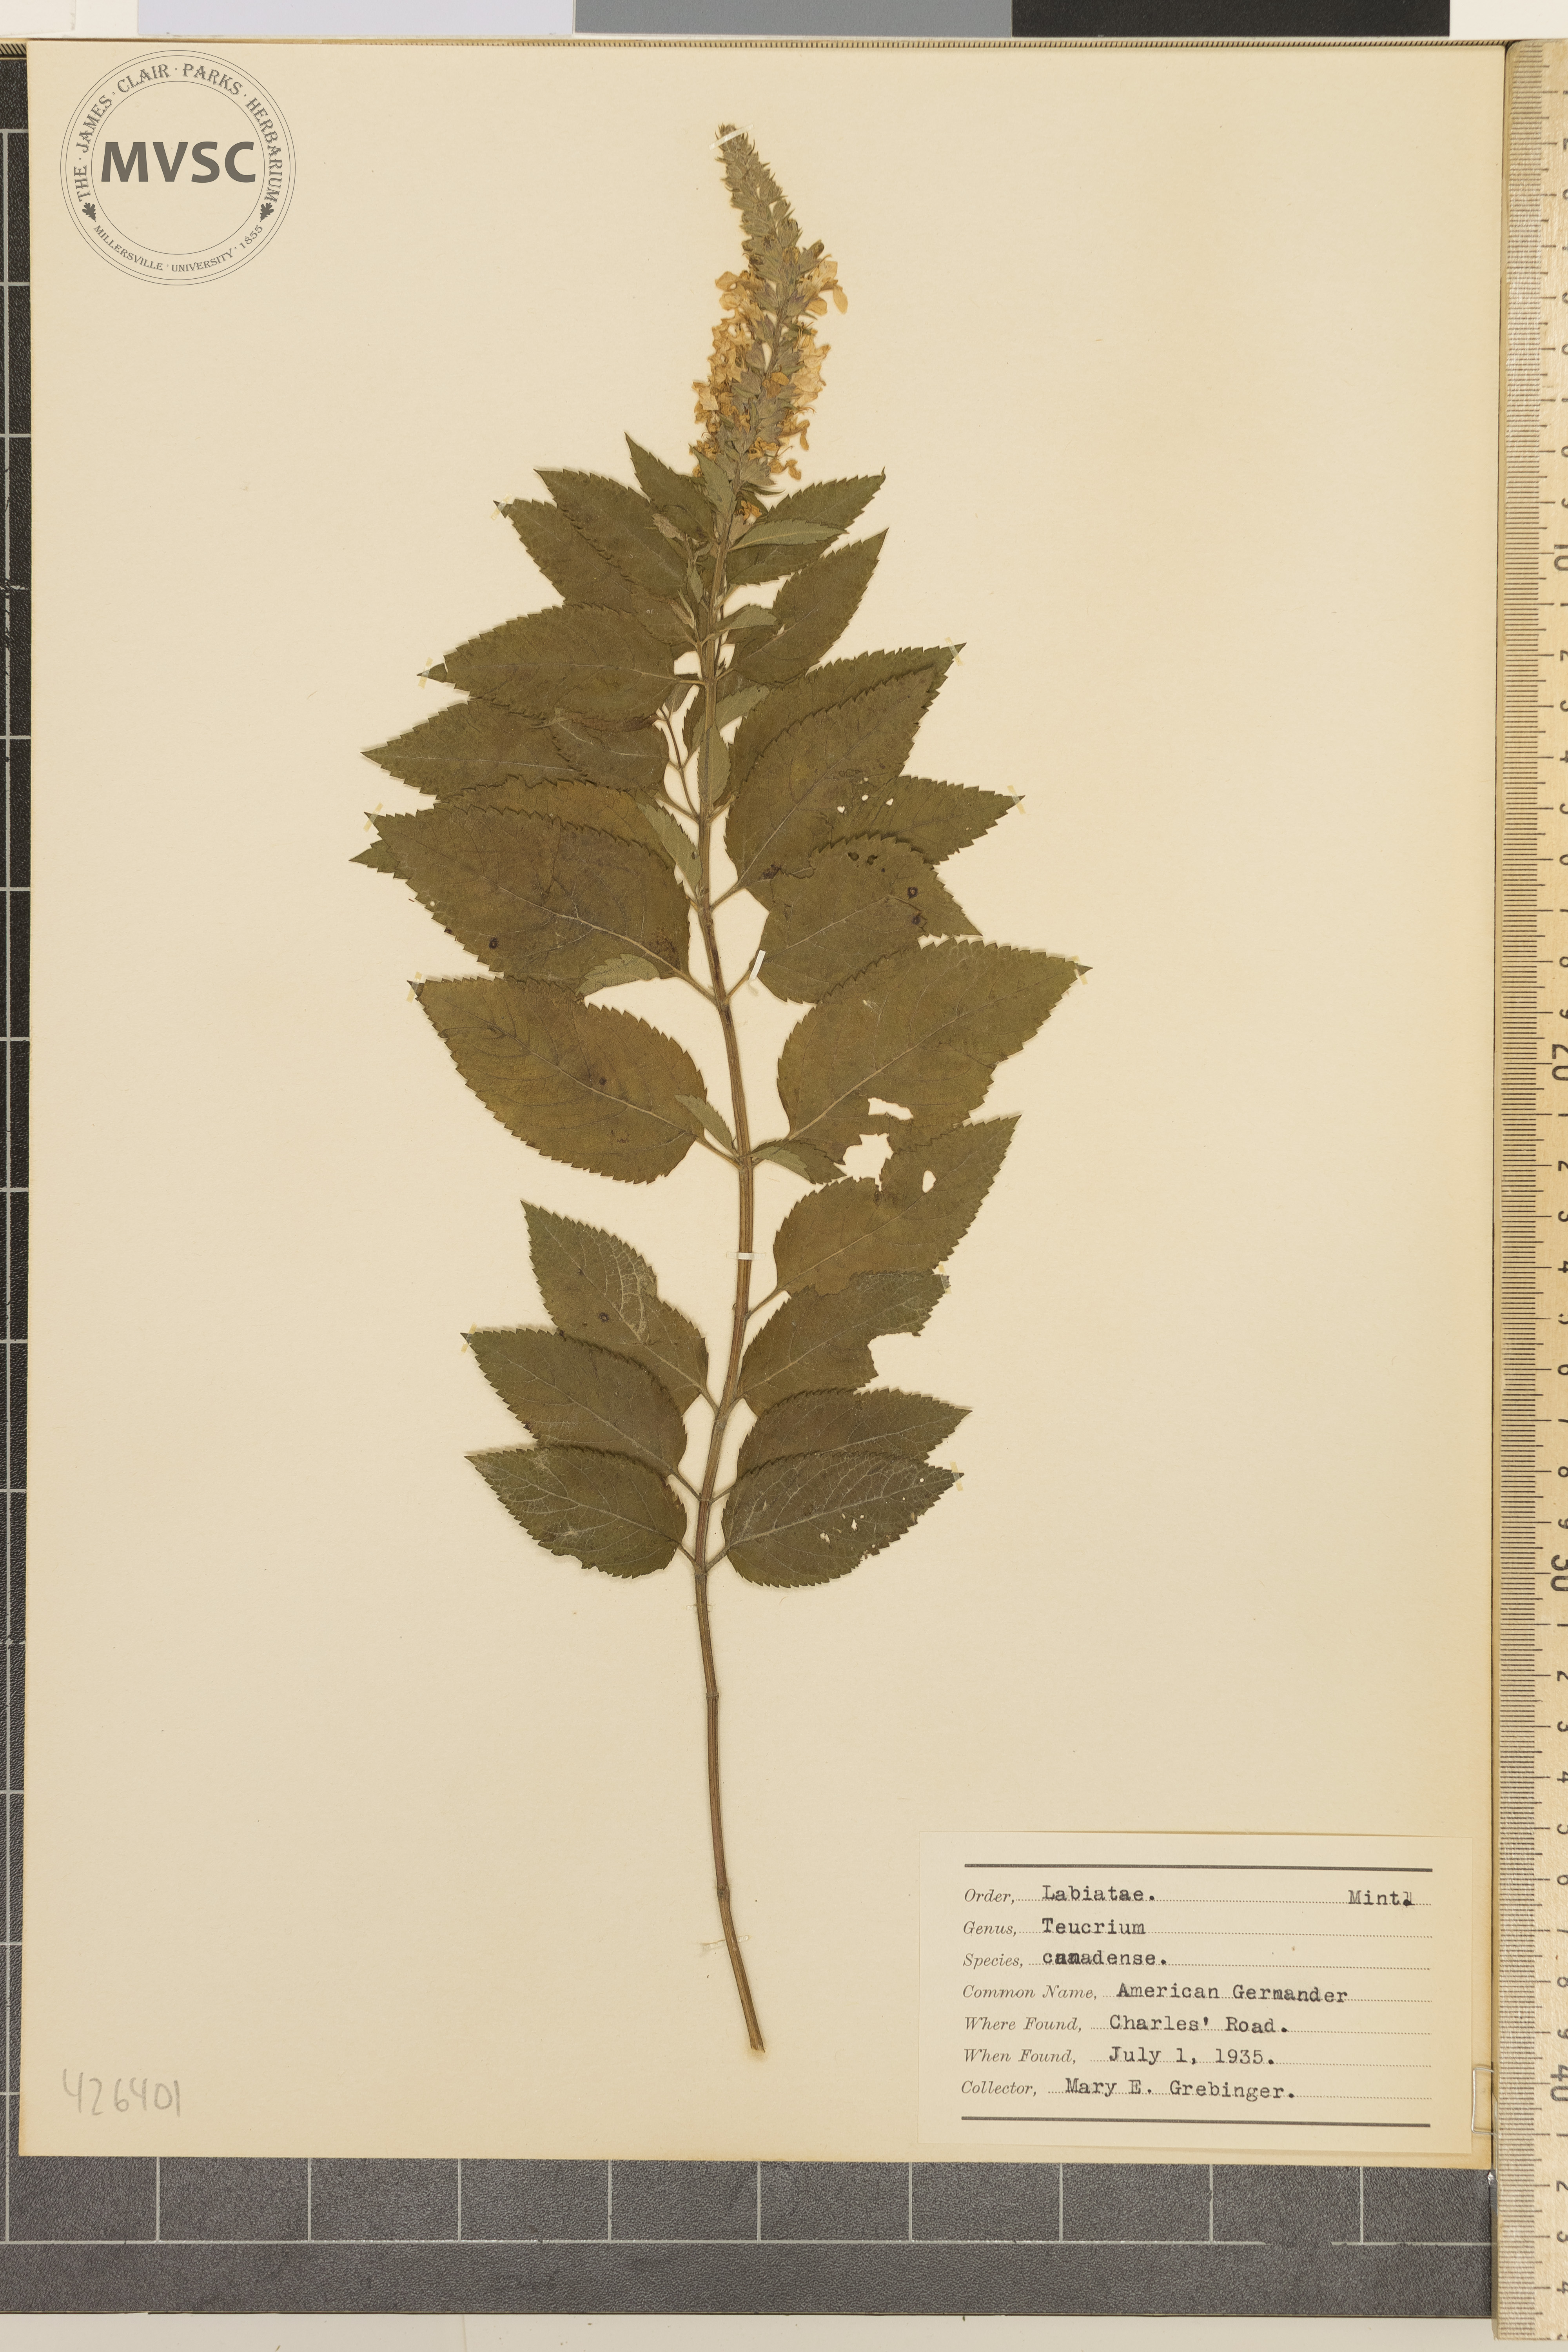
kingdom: Plantae
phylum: Tracheophyta
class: Magnoliopsida
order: Lamiales
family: Lamiaceae
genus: Teucrium
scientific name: Teucrium canadense
